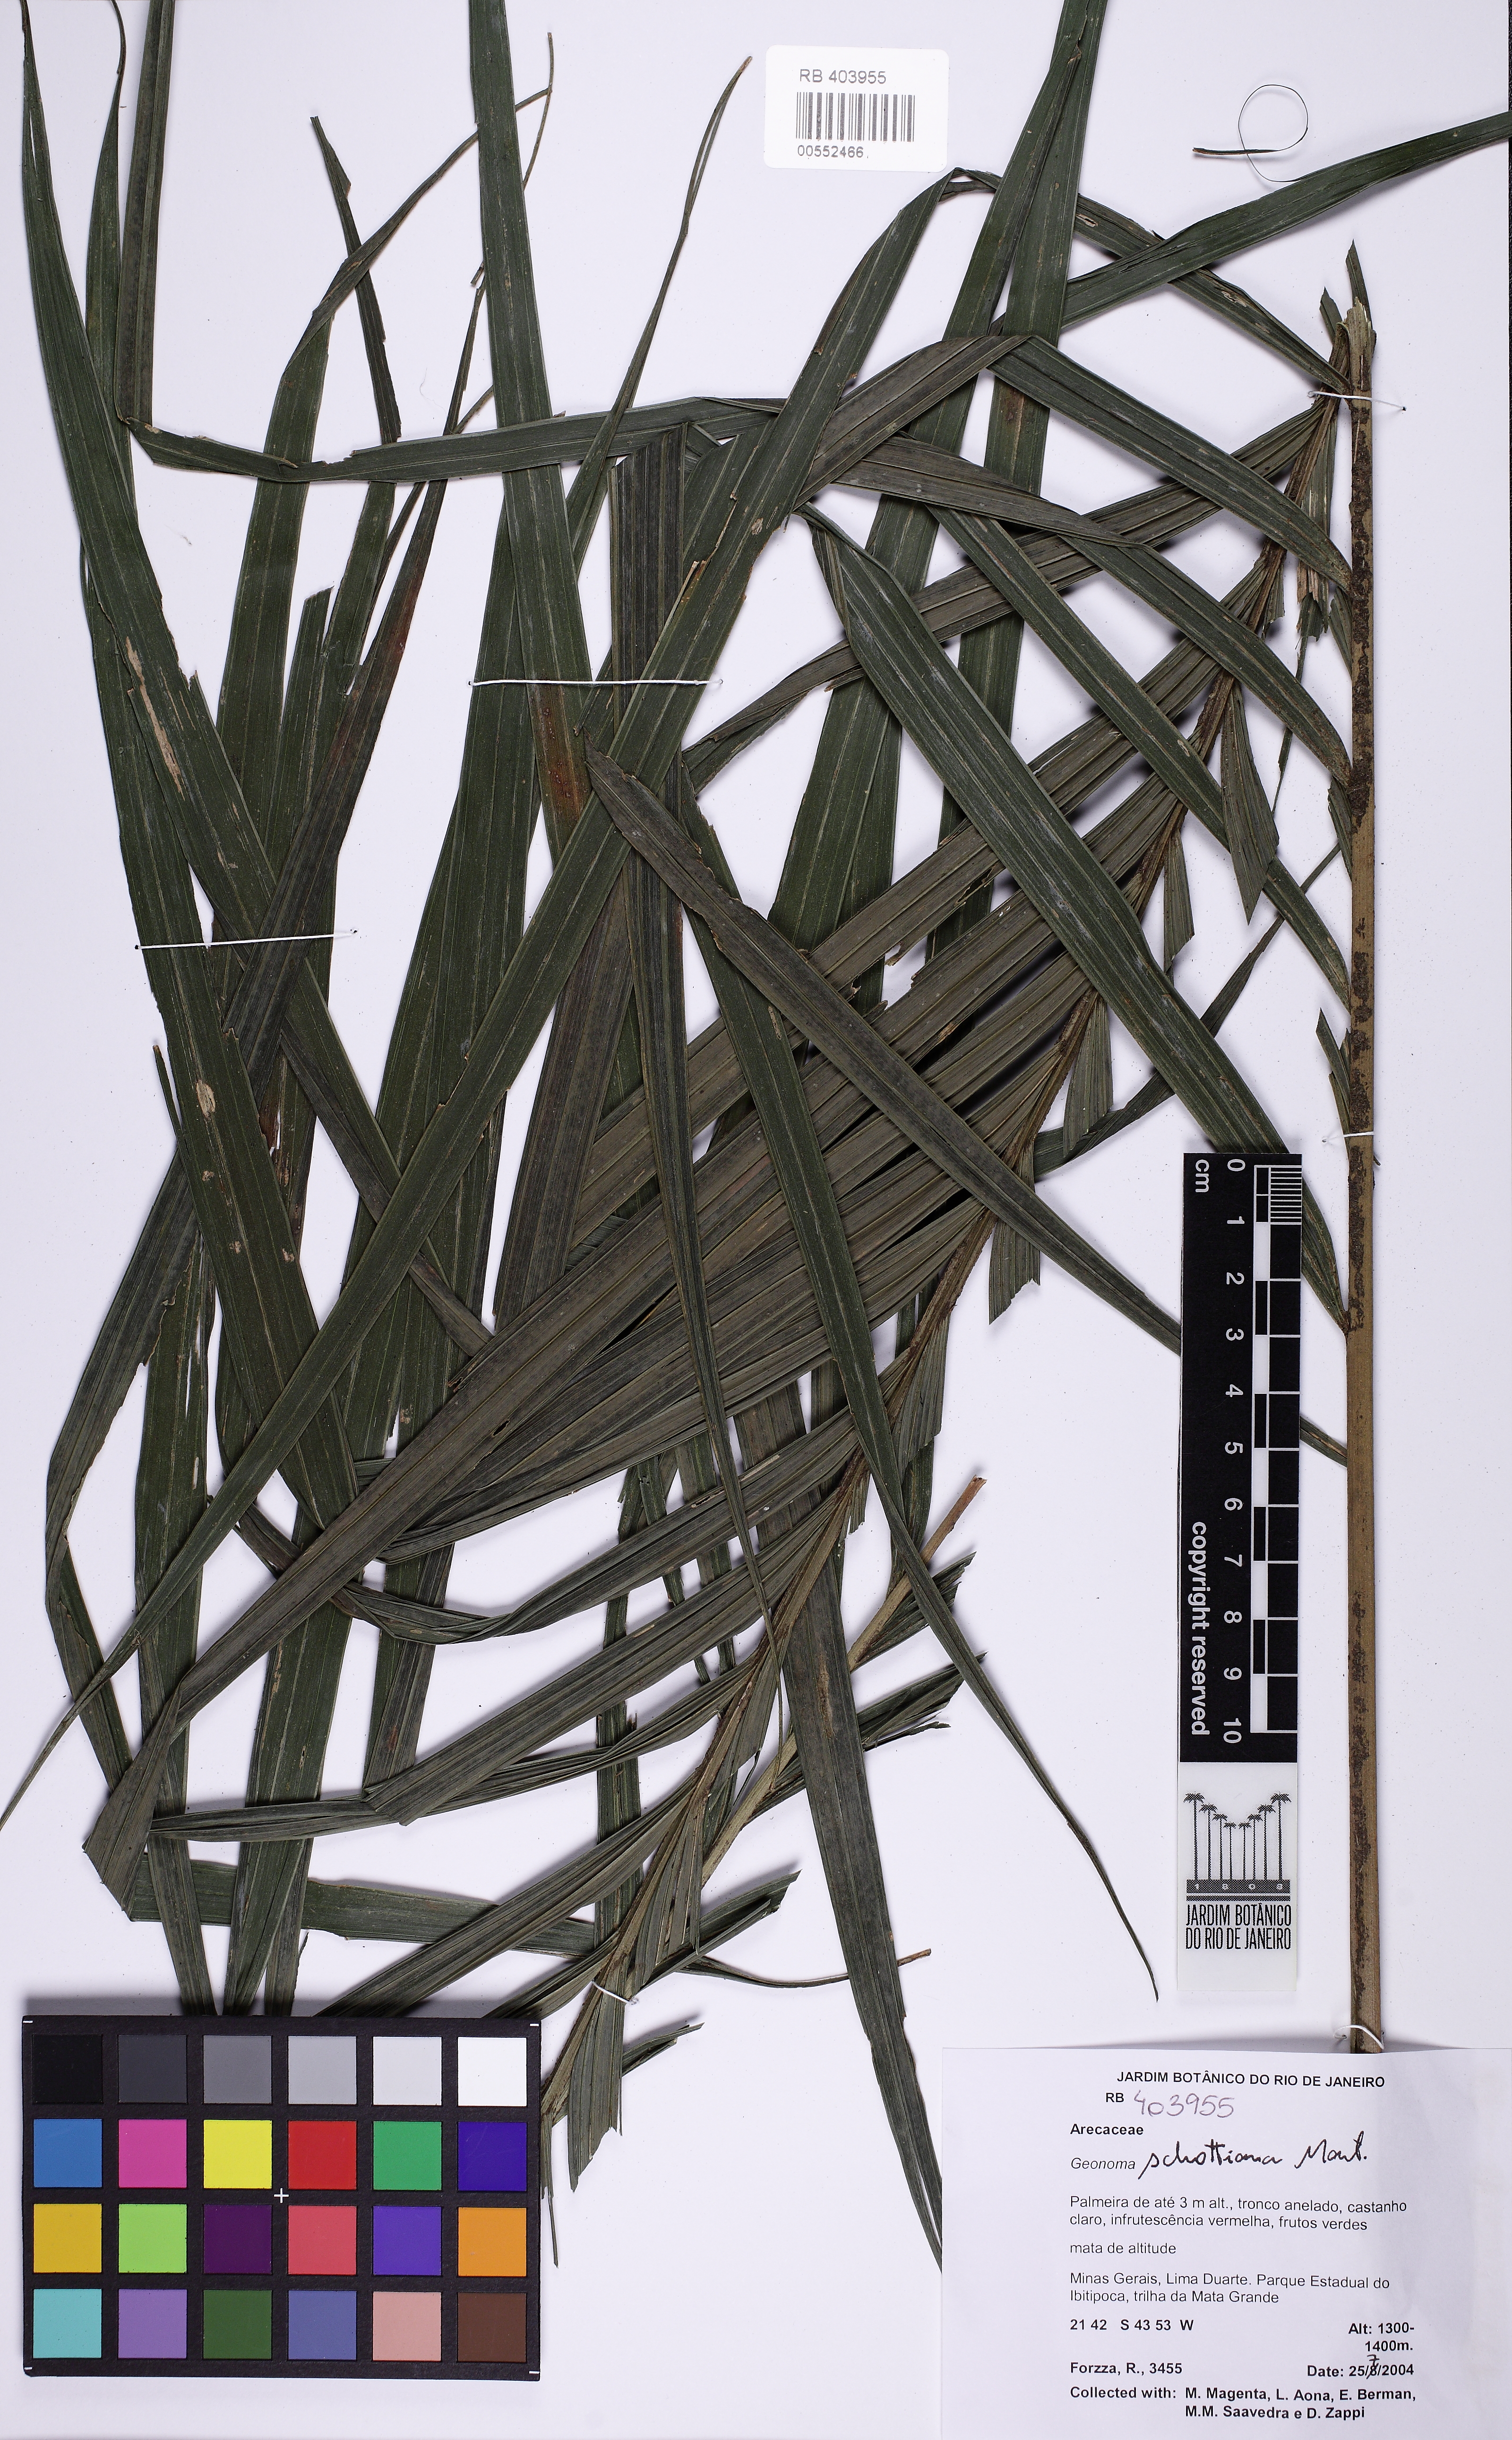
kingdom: Plantae
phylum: Tracheophyta
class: Liliopsida
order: Arecales
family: Arecaceae
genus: Geonoma
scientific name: Geonoma schottiana
